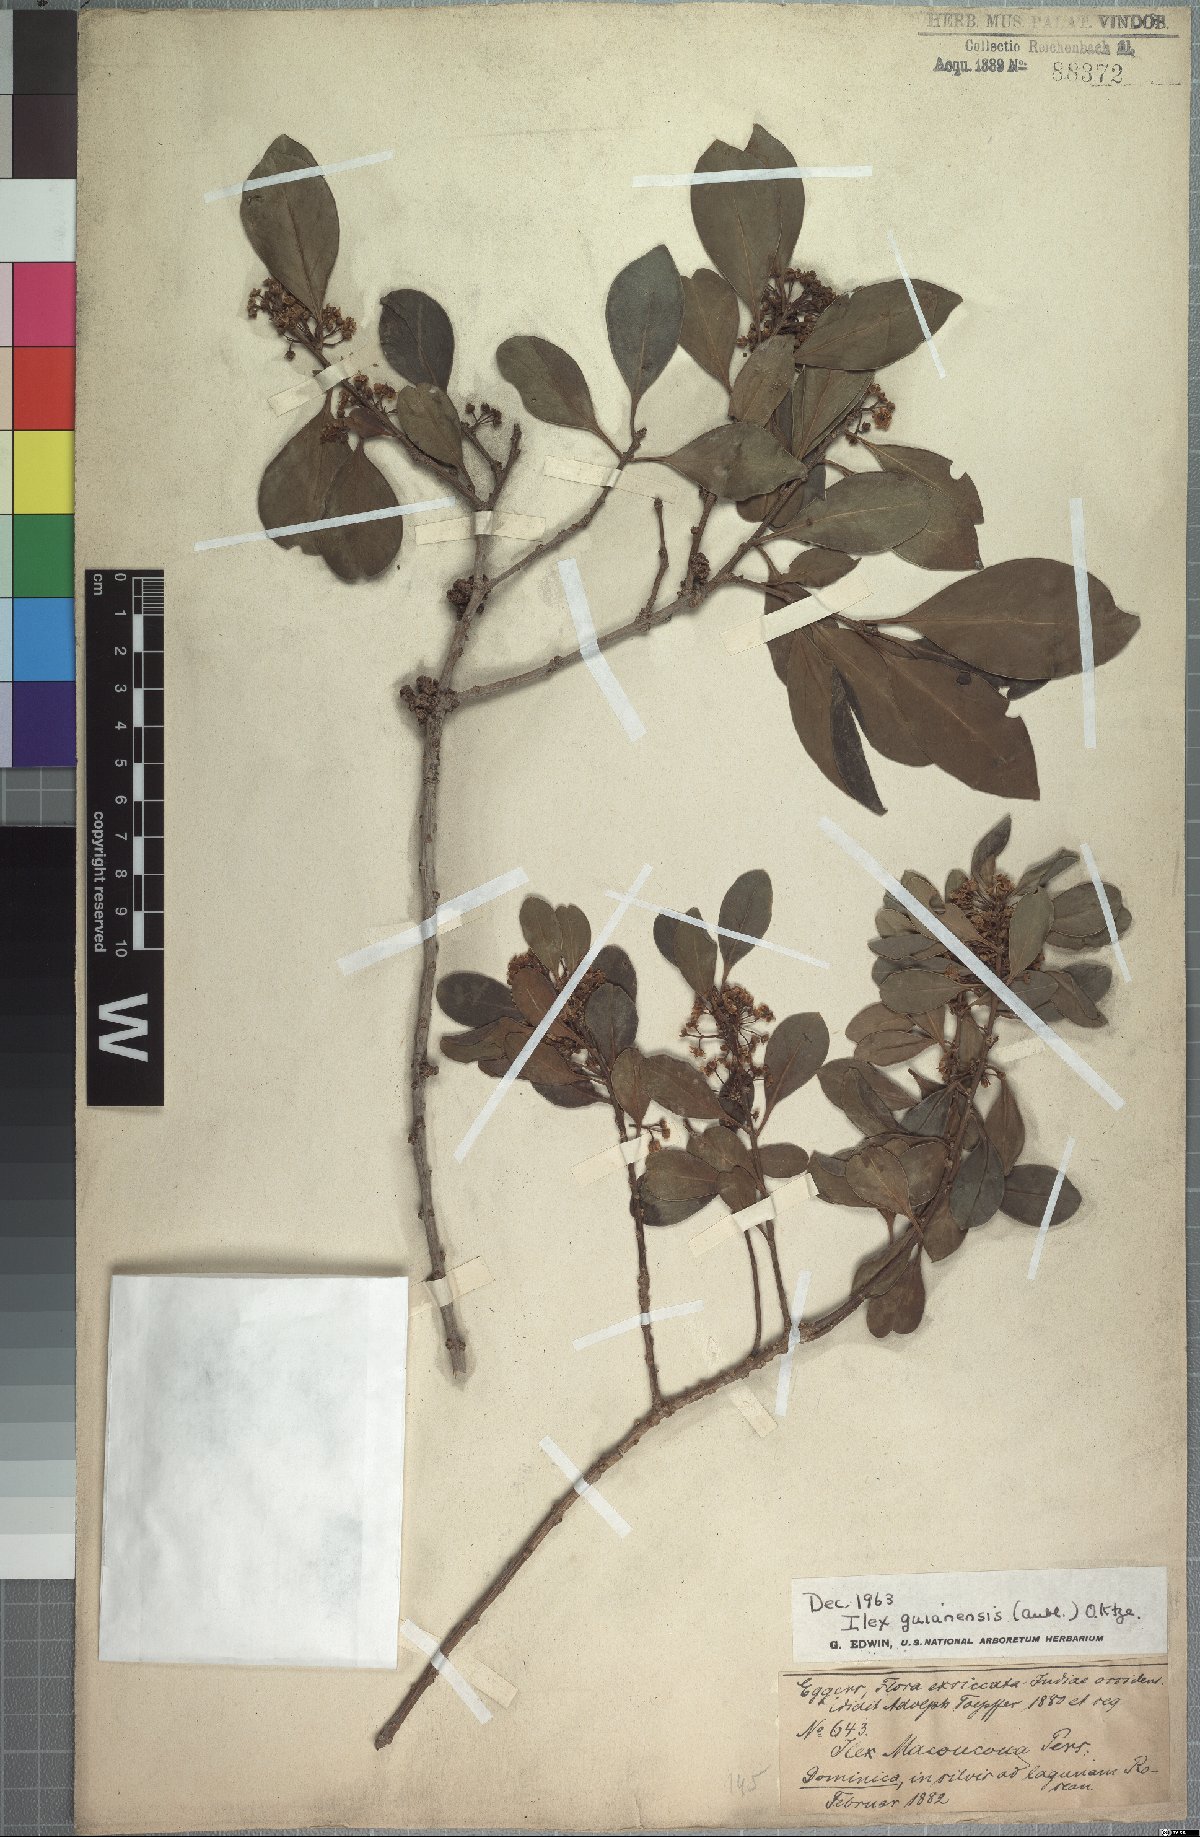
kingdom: Plantae
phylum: Tracheophyta
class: Magnoliopsida
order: Aquifoliales
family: Aquifoliaceae
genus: Ilex
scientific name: Ilex guianensis
